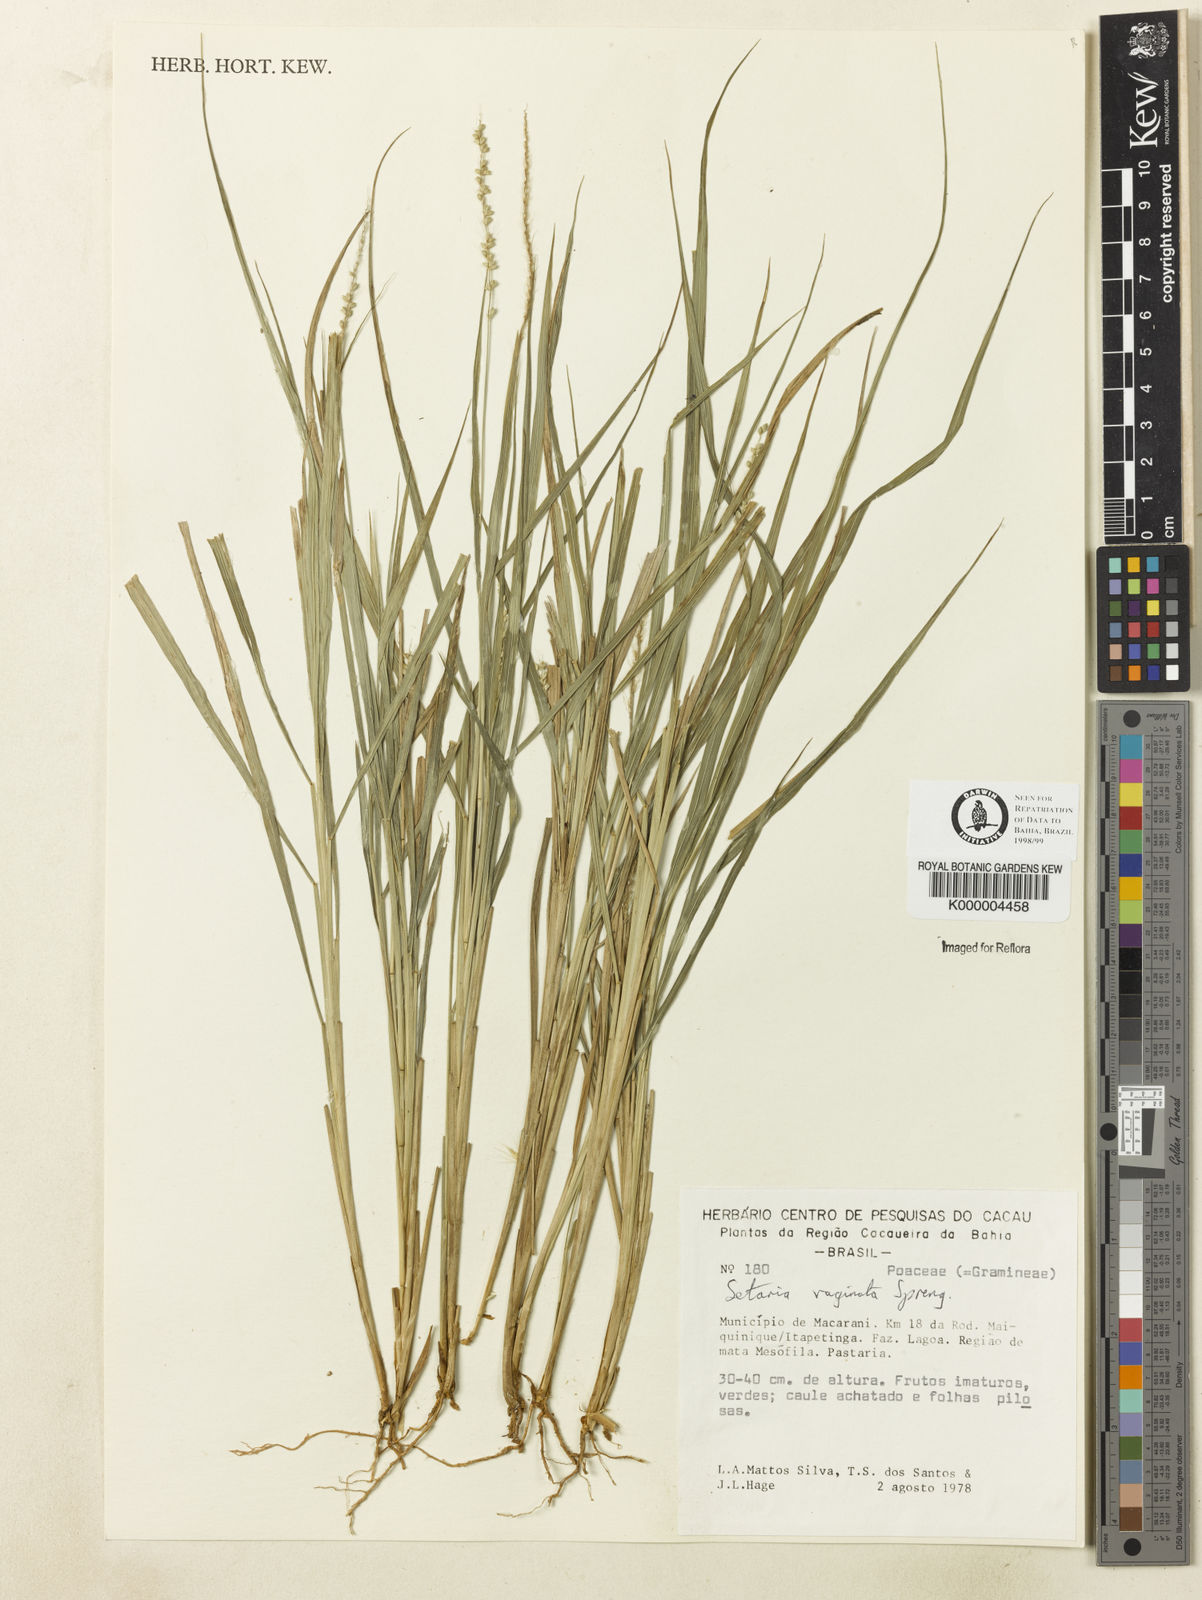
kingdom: Plantae
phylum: Tracheophyta
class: Liliopsida
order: Poales
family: Poaceae
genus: Setaria
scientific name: Setaria setosa
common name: West indies bristle grass
